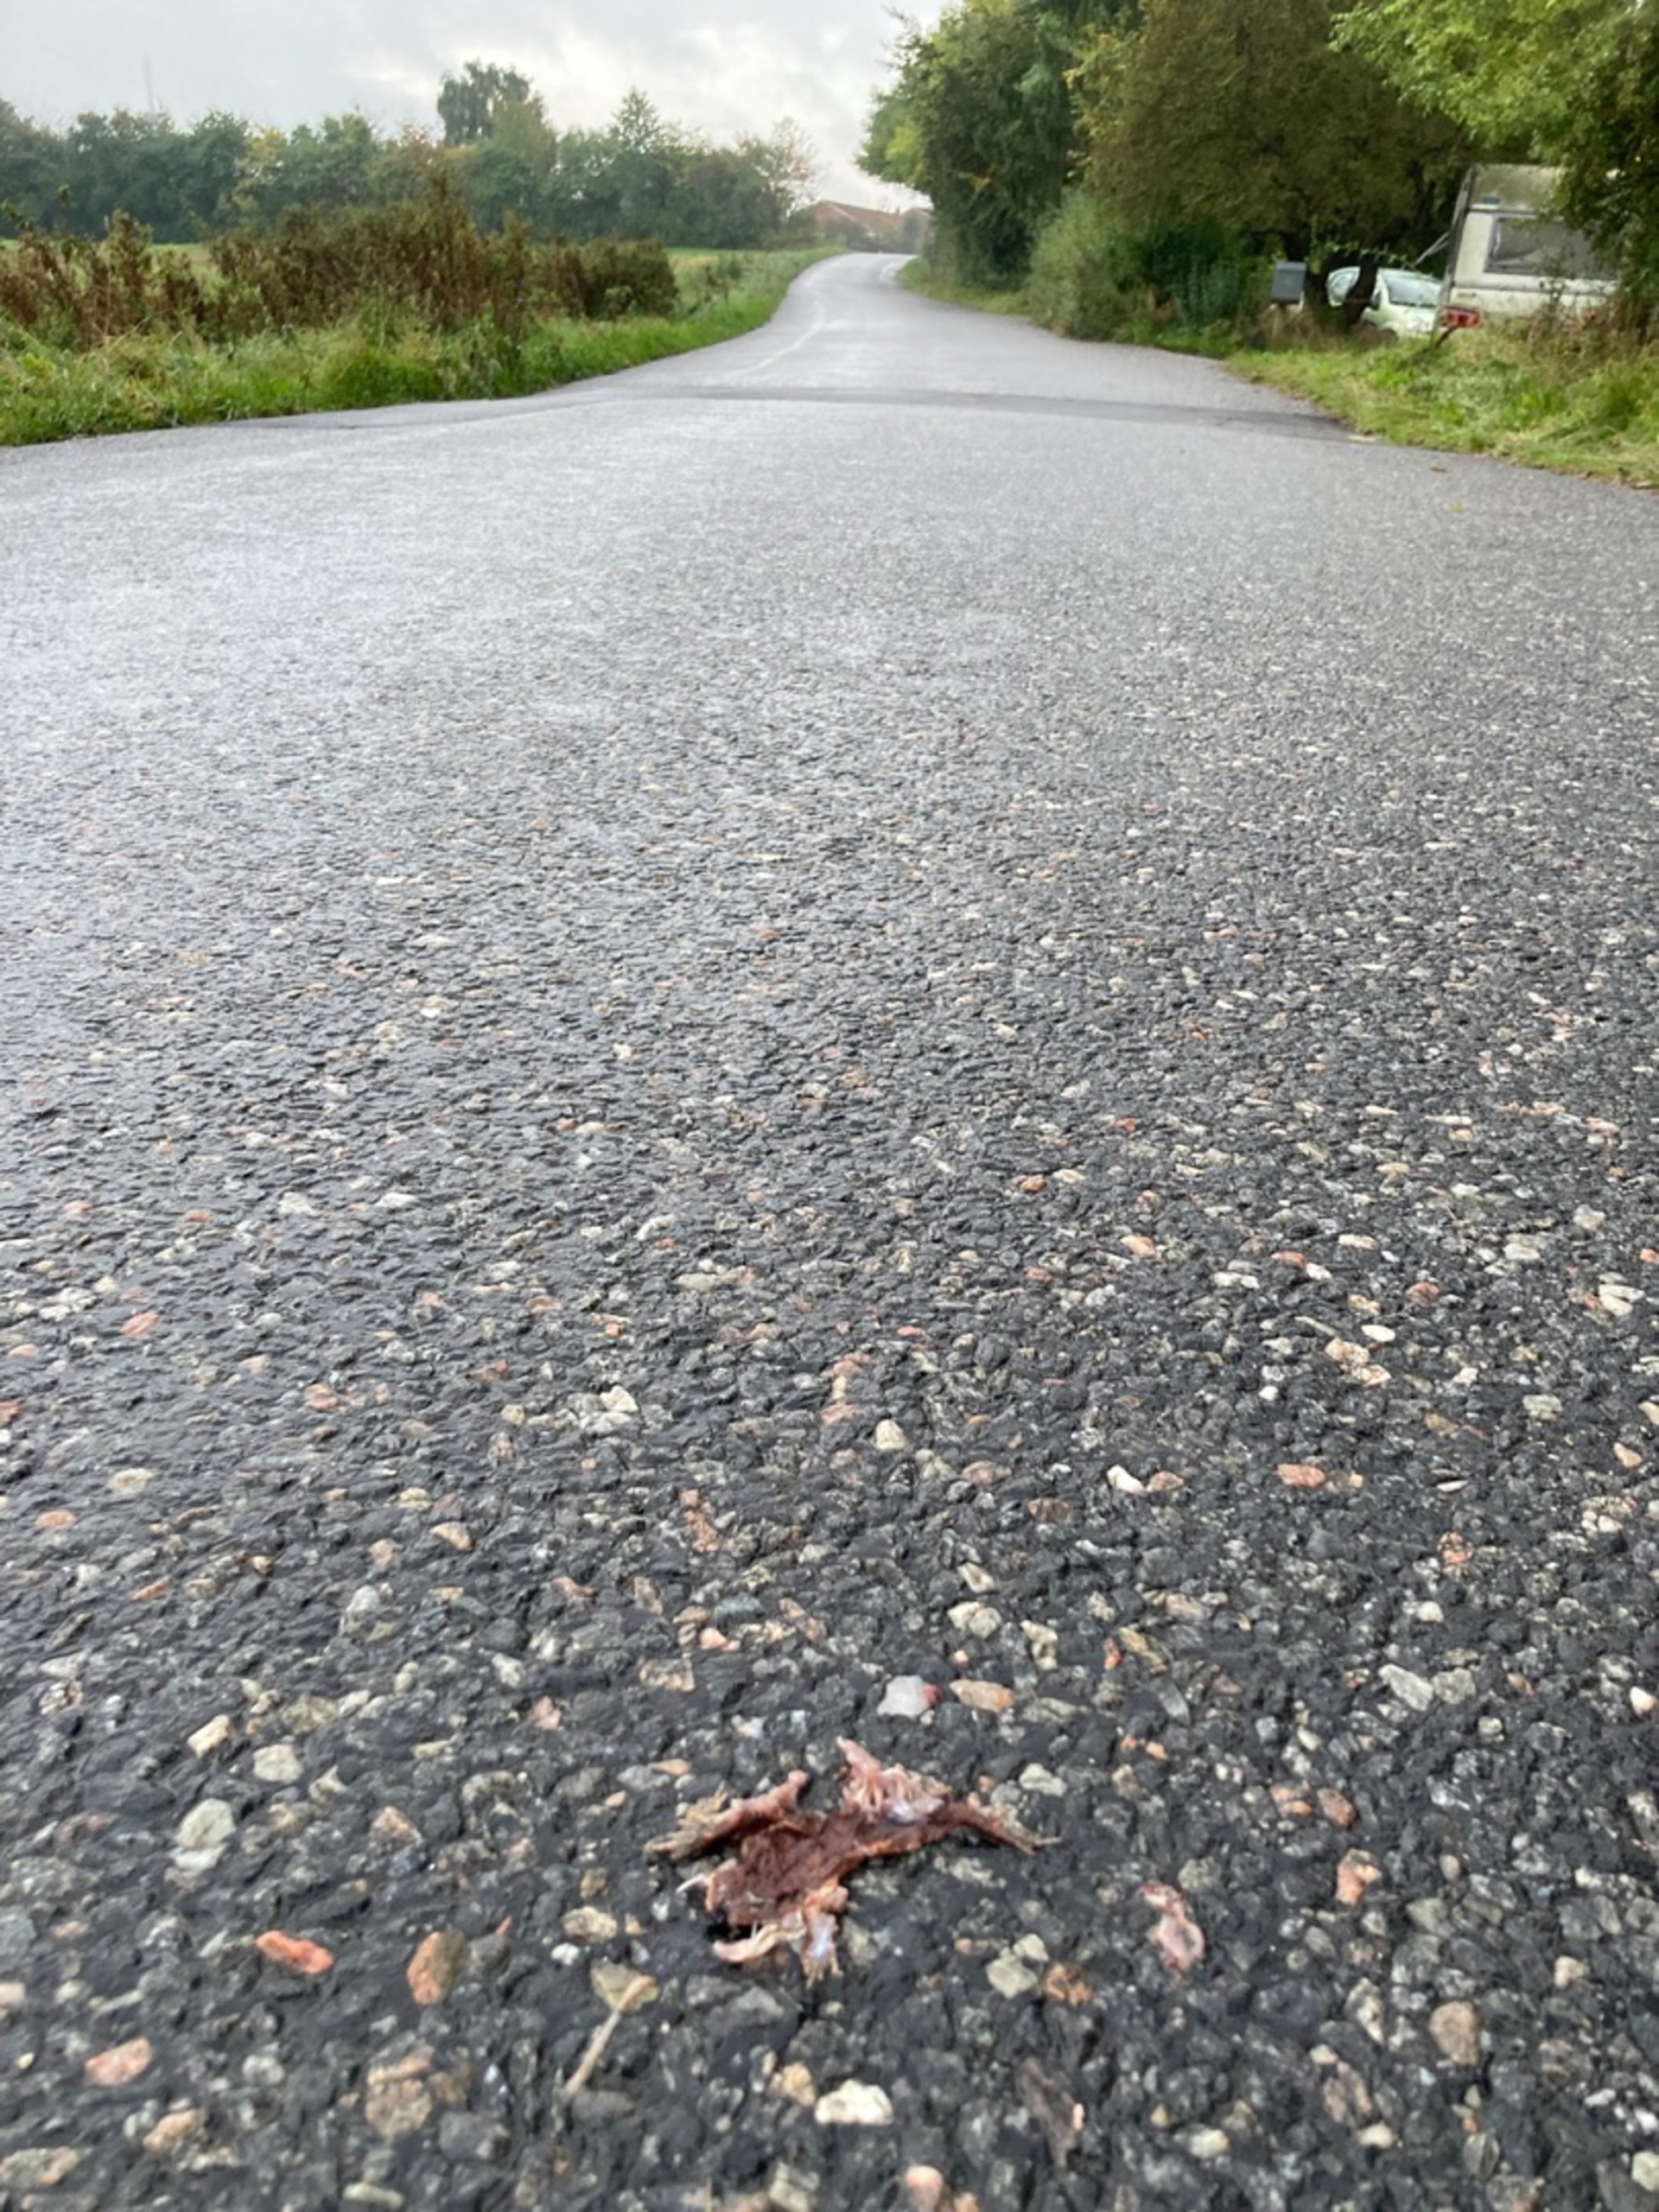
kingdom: Animalia
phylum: Chordata
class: Amphibia
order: Anura
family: Bufonidae
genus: Bufo
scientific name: Bufo bufo
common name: Skrubtudse
